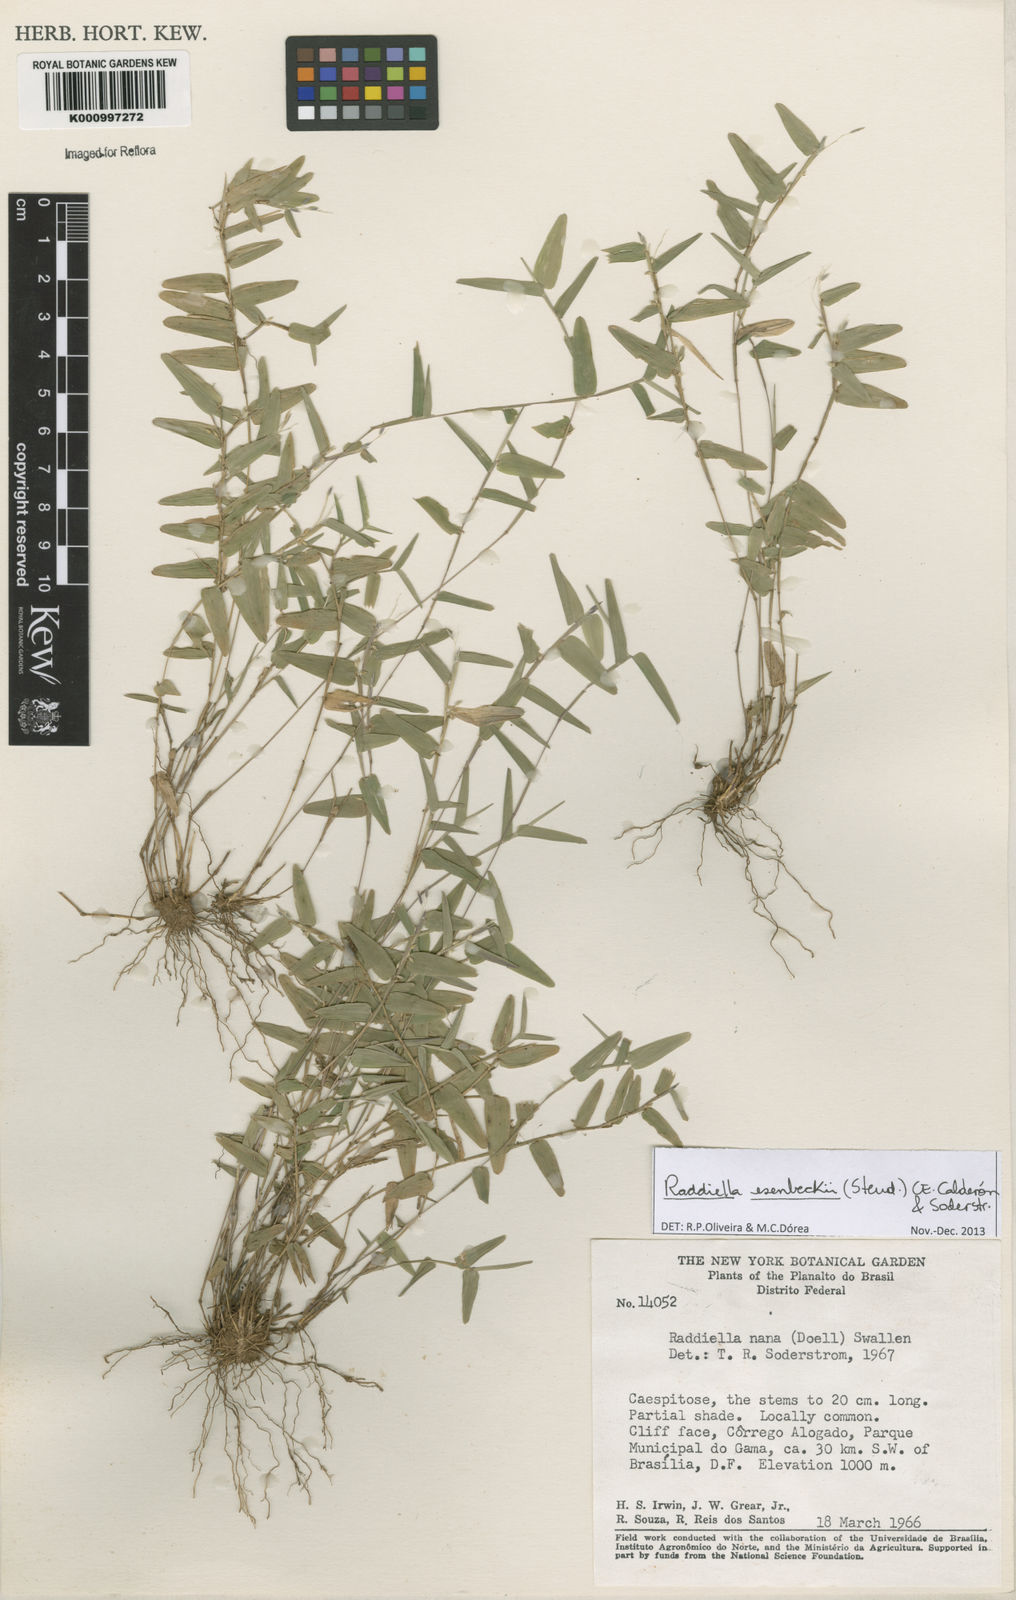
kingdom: Plantae
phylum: Tracheophyta
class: Liliopsida
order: Poales
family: Poaceae
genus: Raddiella
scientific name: Raddiella
